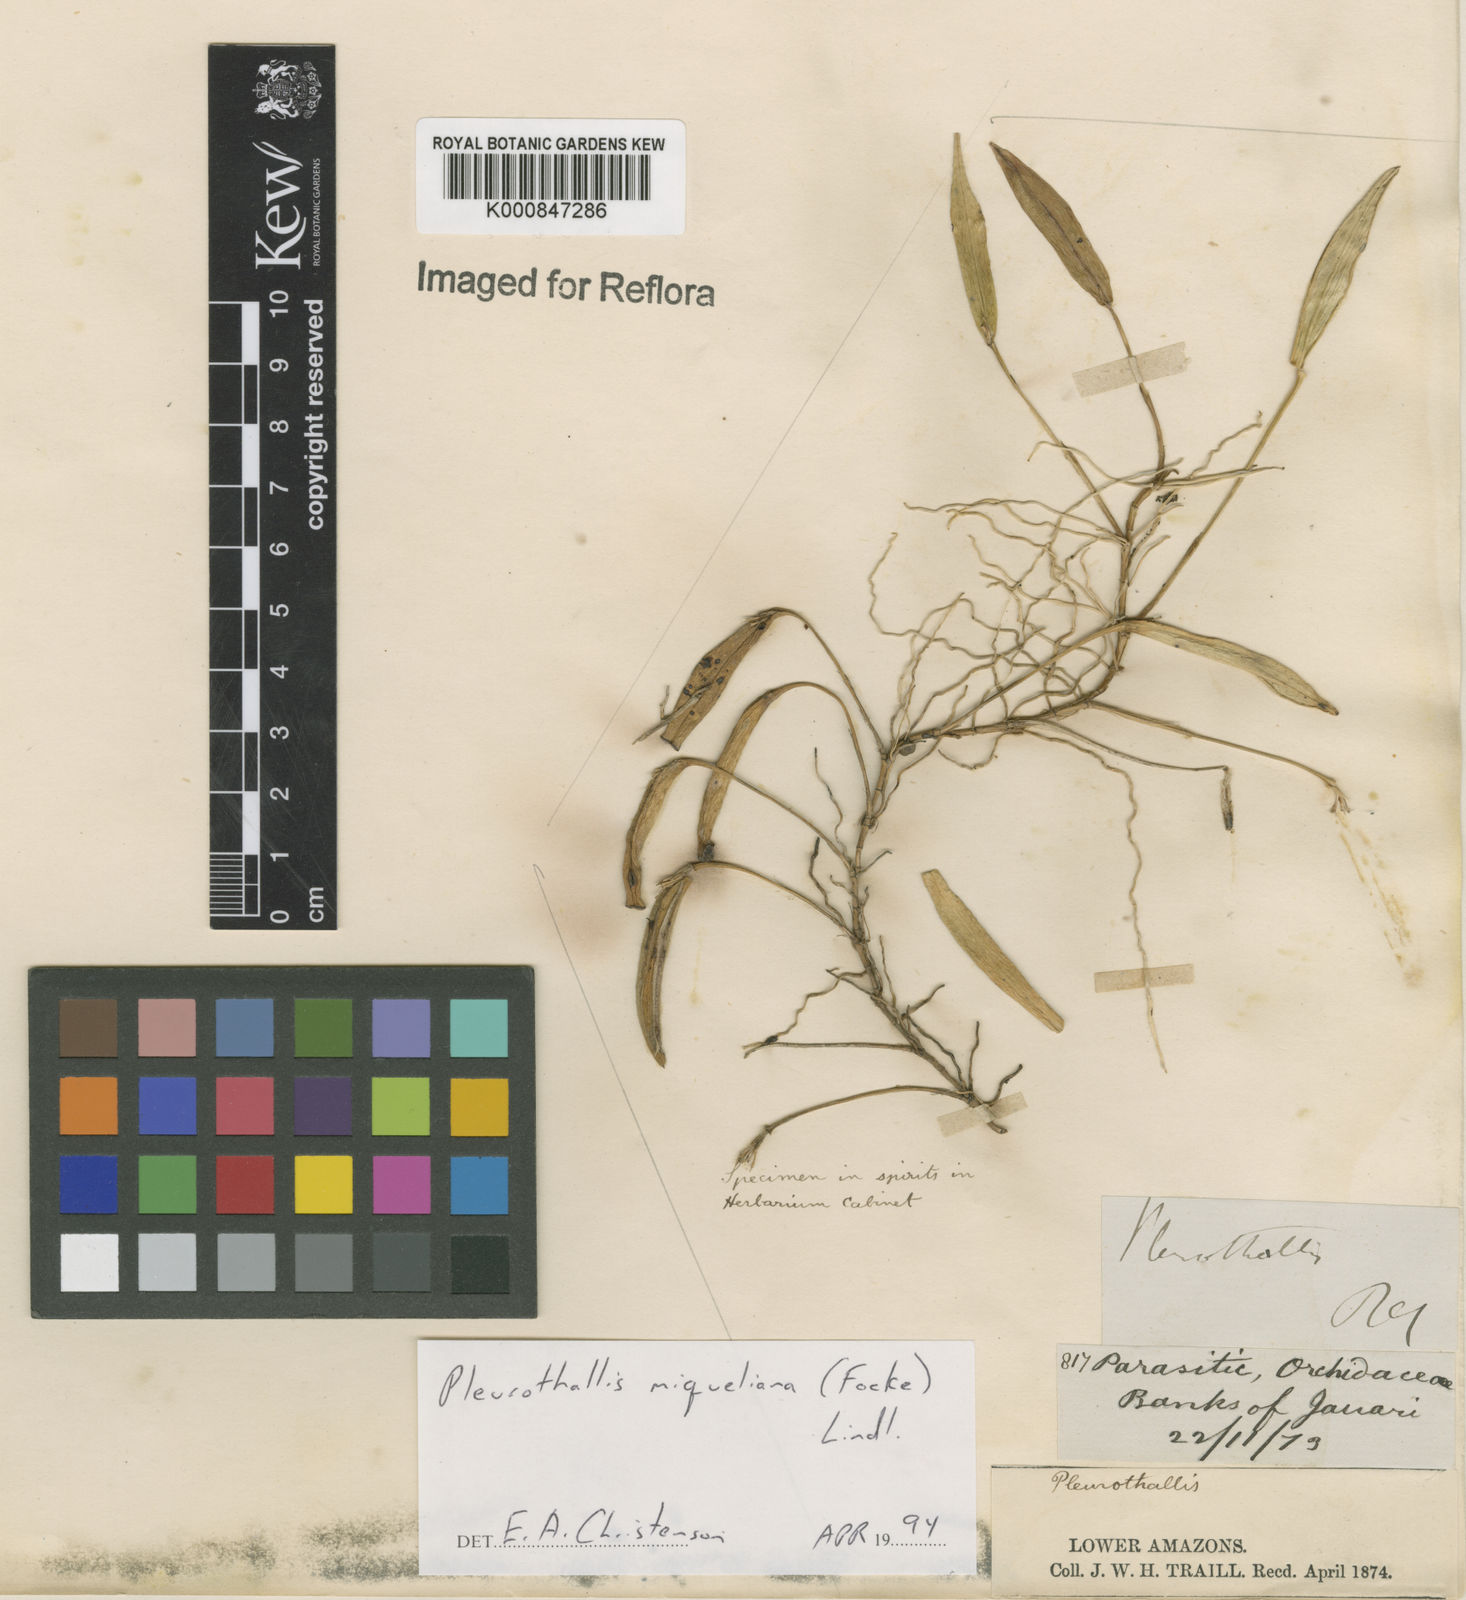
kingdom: Plantae
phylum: Tracheophyta
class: Liliopsida
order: Asparagales
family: Orchidaceae
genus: Acianthera
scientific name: Acianthera miqueliana
